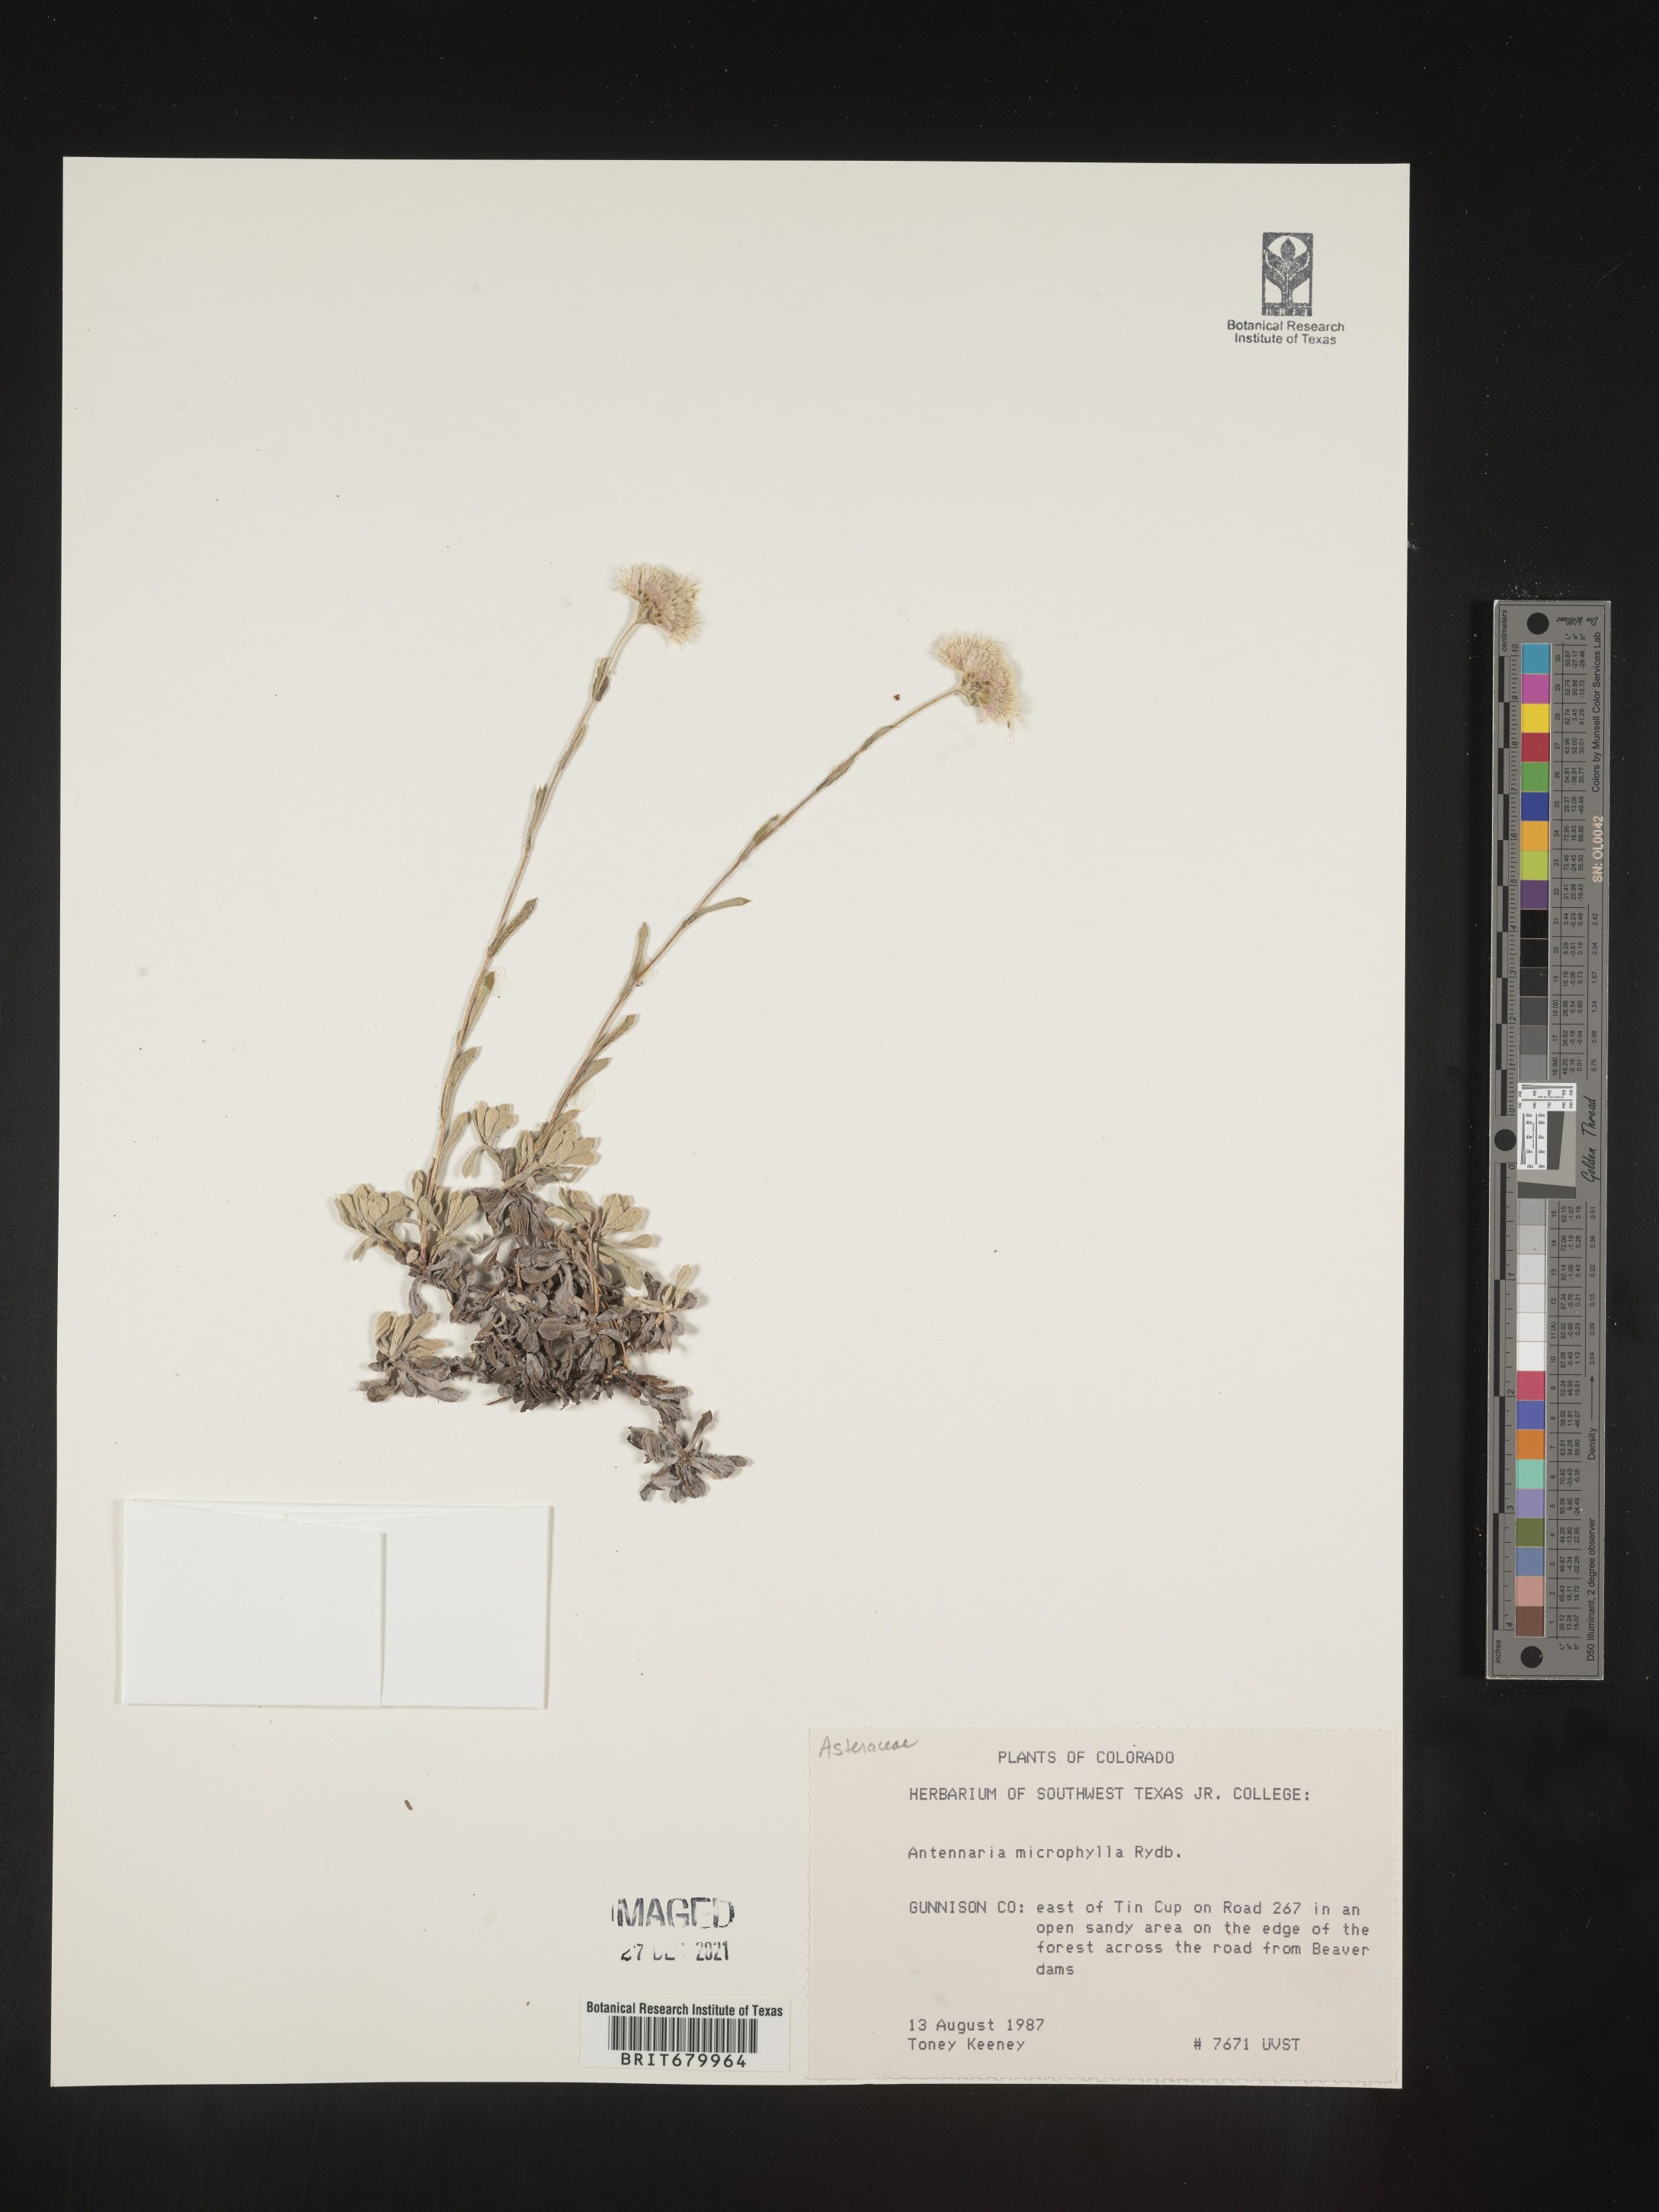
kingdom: Plantae
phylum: Tracheophyta
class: Magnoliopsida
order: Asterales
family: Asteraceae
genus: Antennaria
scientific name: Antennaria rosea
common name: Rosy pussytoes
